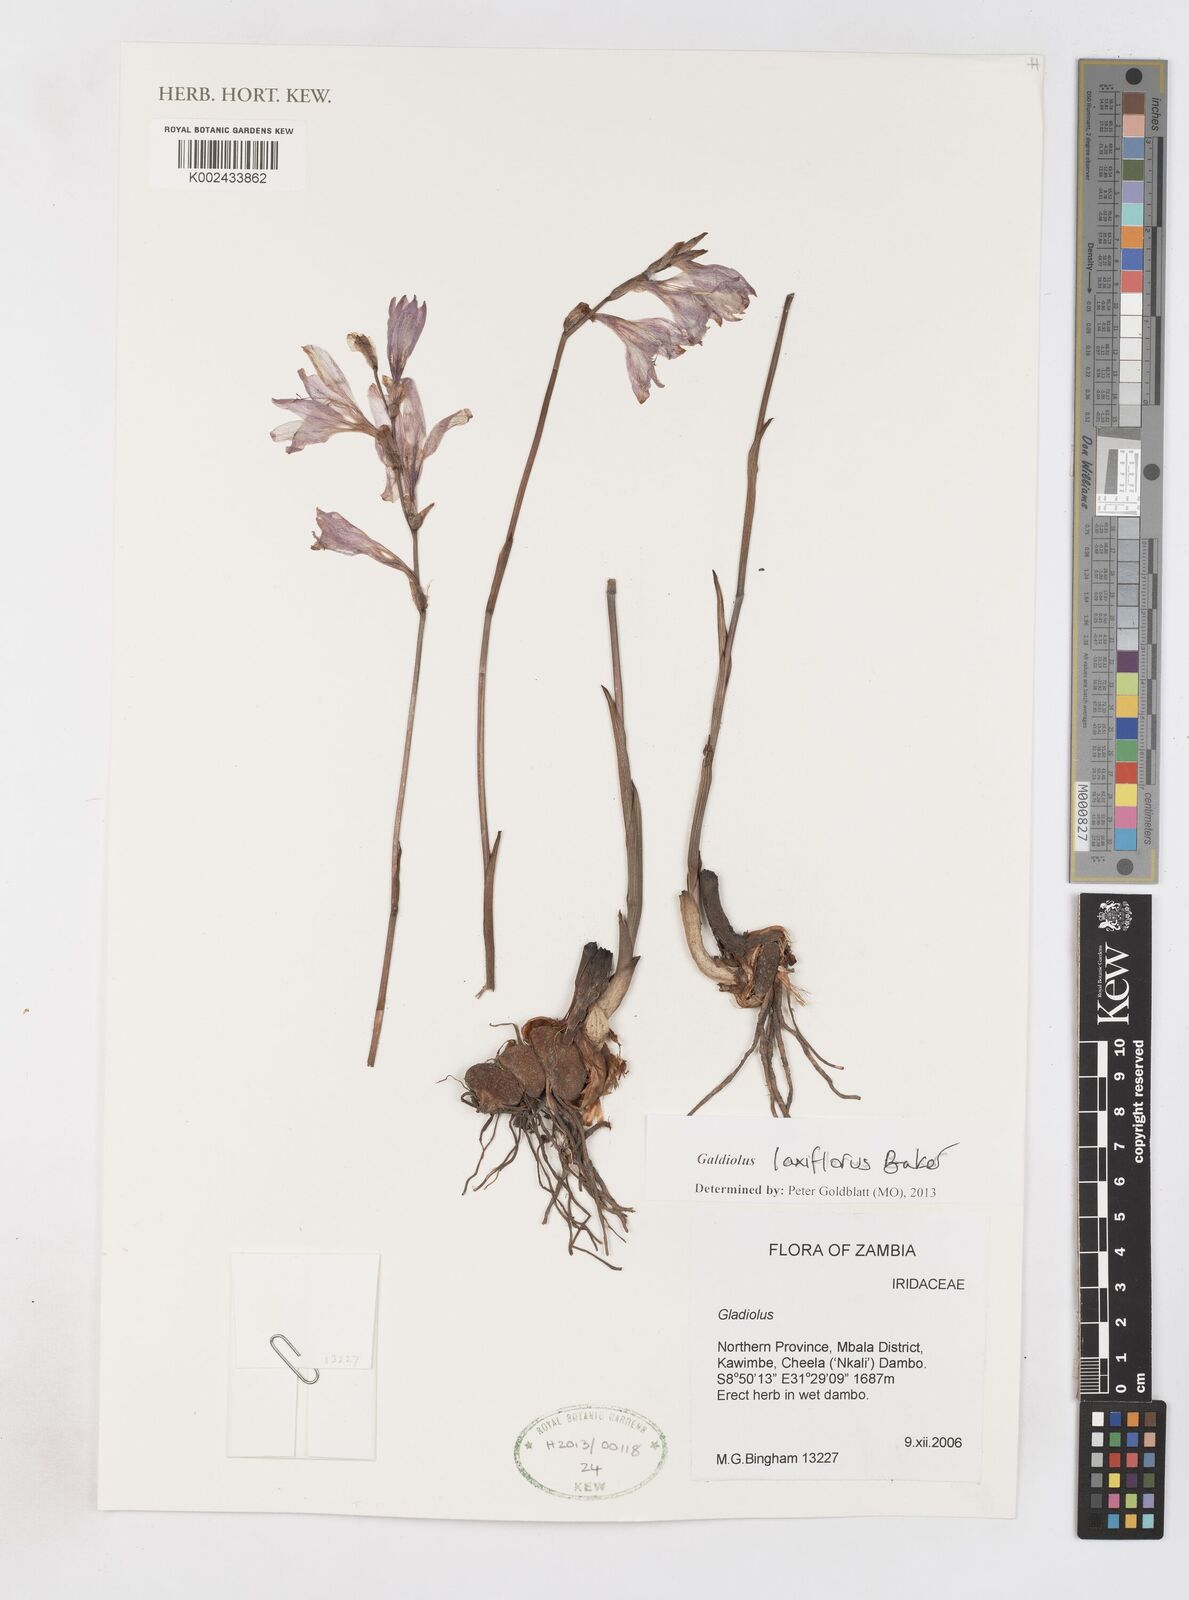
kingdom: Plantae
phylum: Tracheophyta
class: Liliopsida
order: Asparagales
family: Iridaceae
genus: Gladiolus
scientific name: Gladiolus laxiflorus
